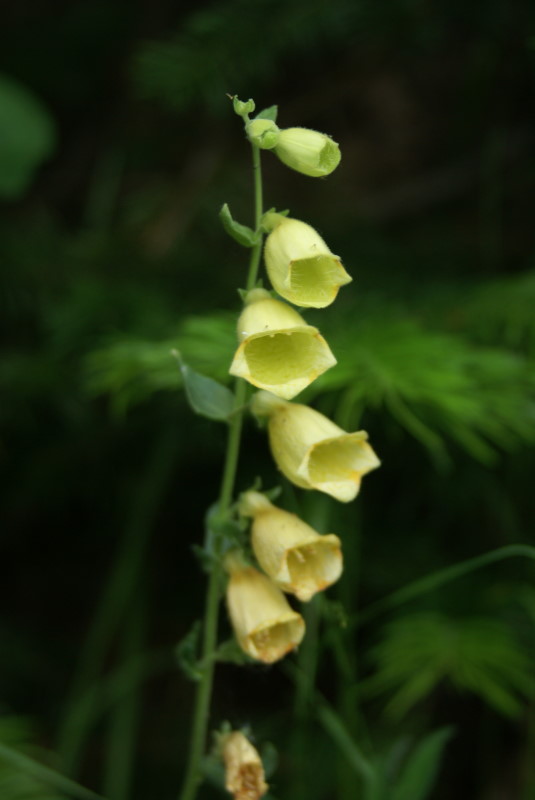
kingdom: Plantae
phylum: Tracheophyta
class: Magnoliopsida
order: Lamiales
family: Plantaginaceae
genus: Digitalis
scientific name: Digitalis grandiflora
